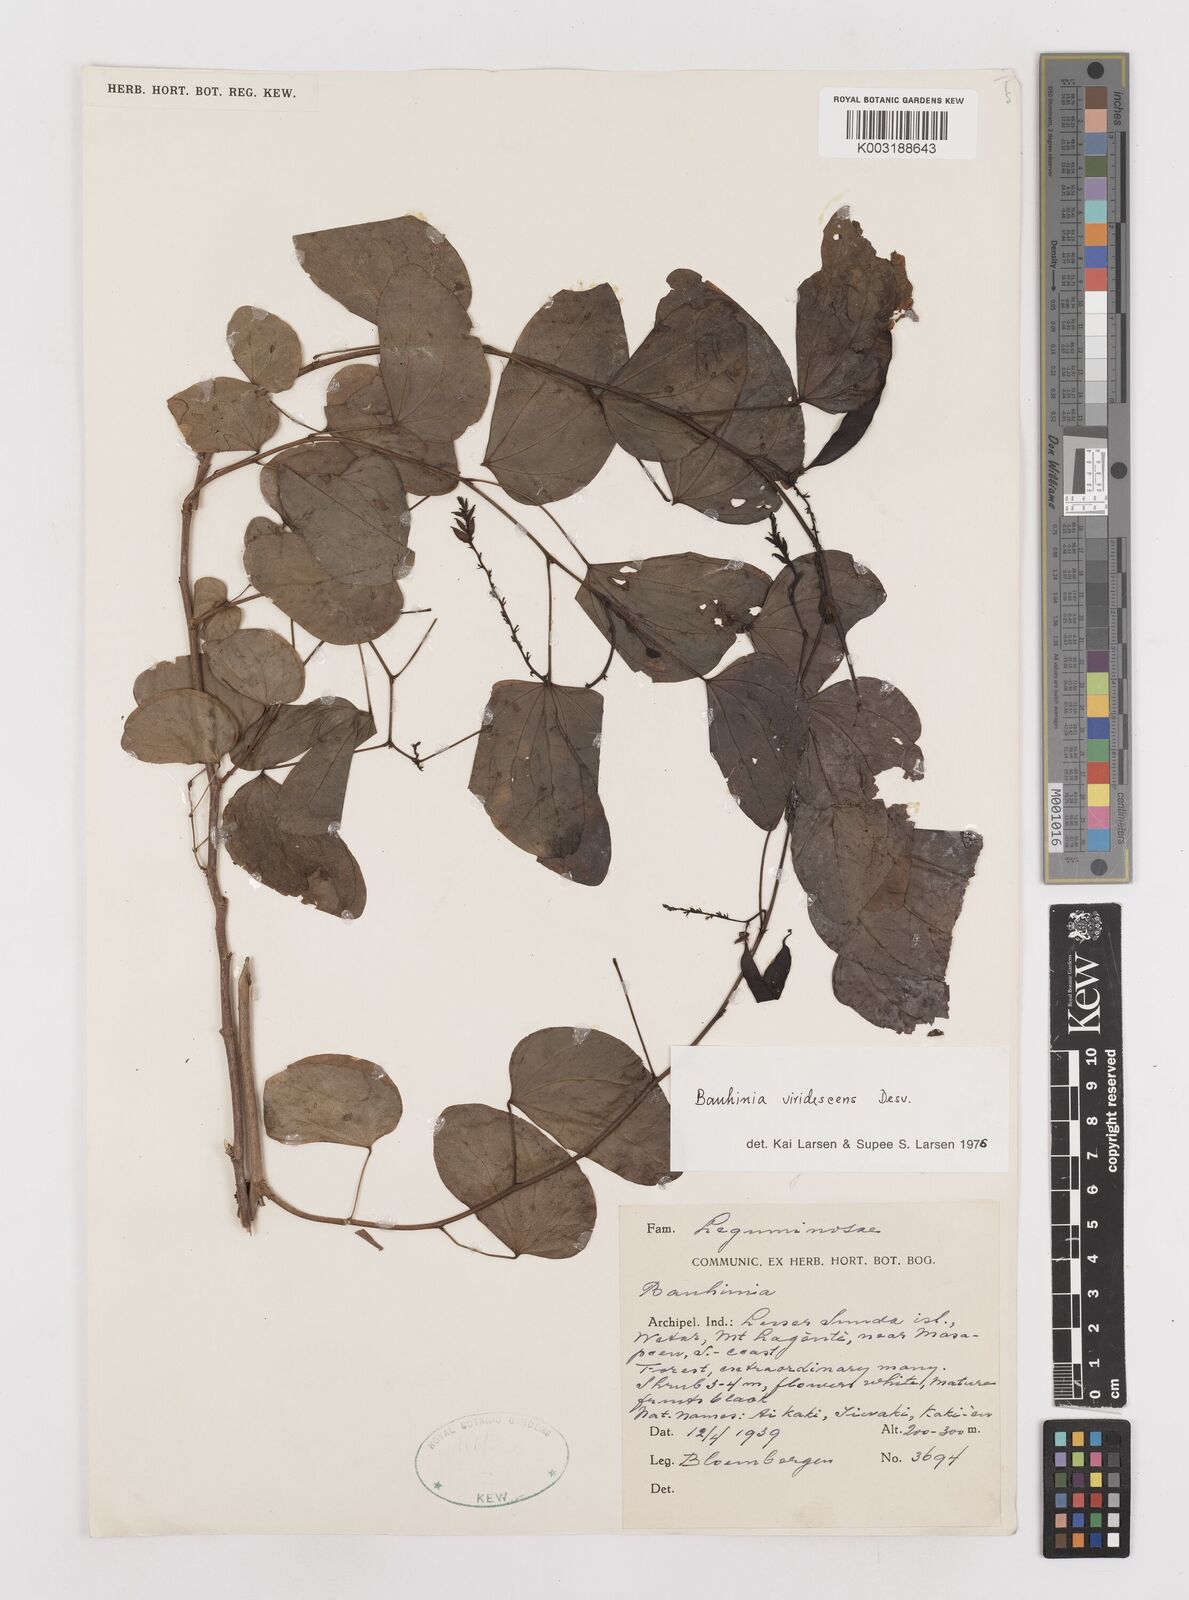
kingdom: Plantae
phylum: Tracheophyta
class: Magnoliopsida
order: Fabales
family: Fabaceae
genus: Bauhinia
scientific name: Bauhinia viridescens
